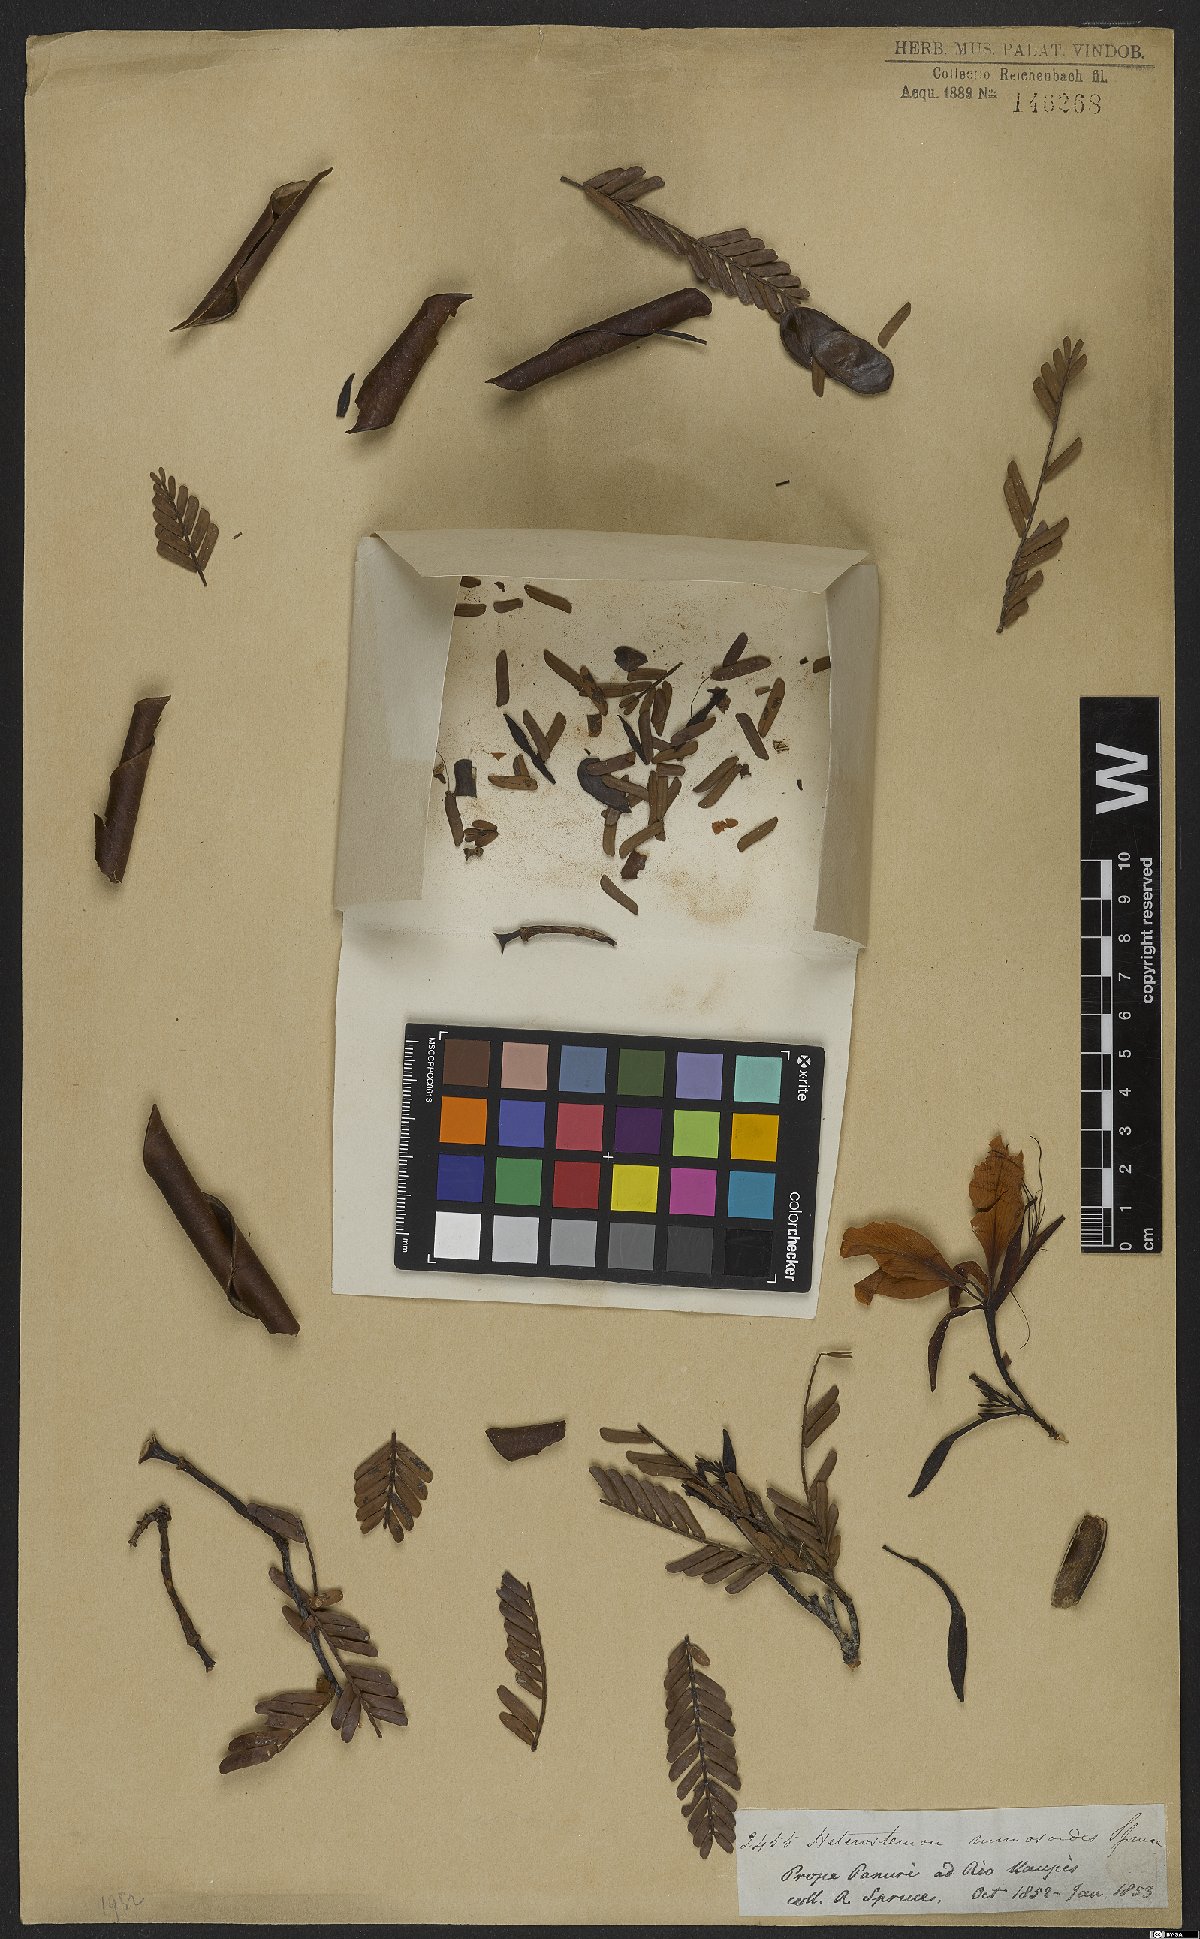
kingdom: Plantae
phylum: Tracheophyta
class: Magnoliopsida
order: Fabales
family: Fabaceae
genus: Heterostemon
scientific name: Heterostemon mimosoides
